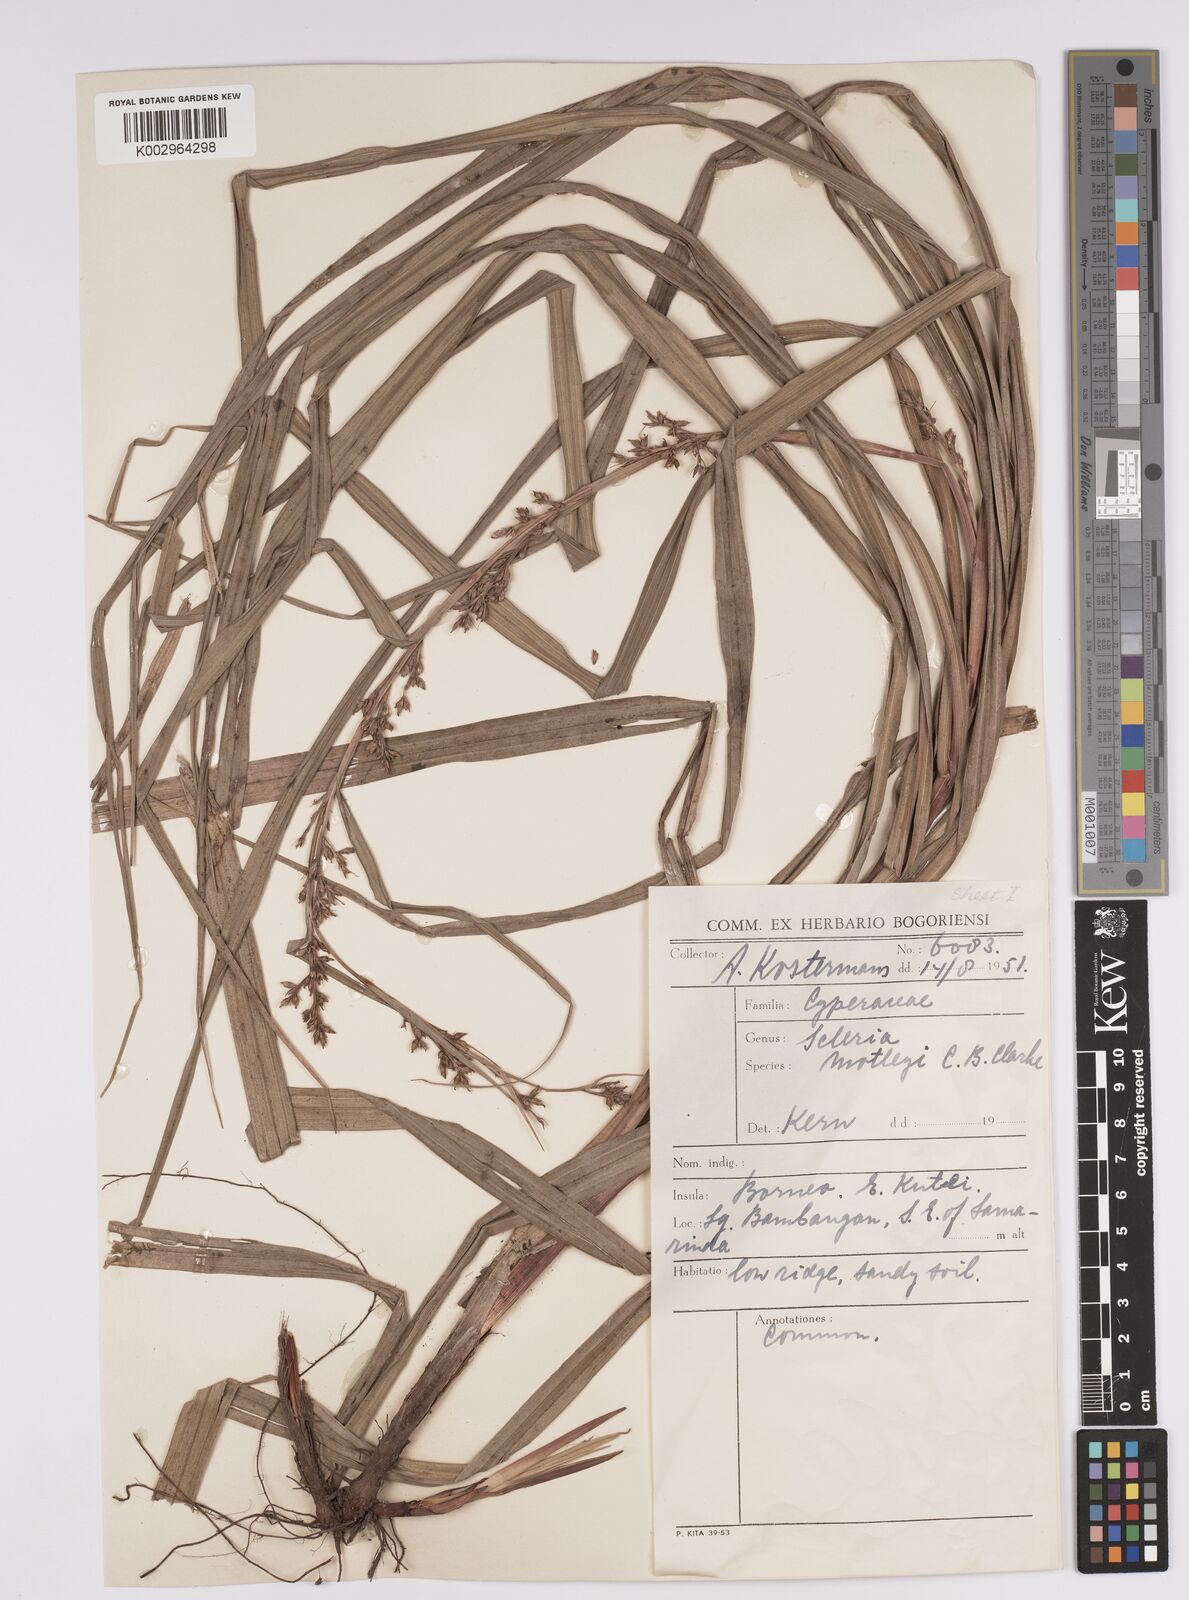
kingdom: Plantae
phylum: Tracheophyta
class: Liliopsida
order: Poales
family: Cyperaceae
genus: Scleria
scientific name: Scleria motleyi
